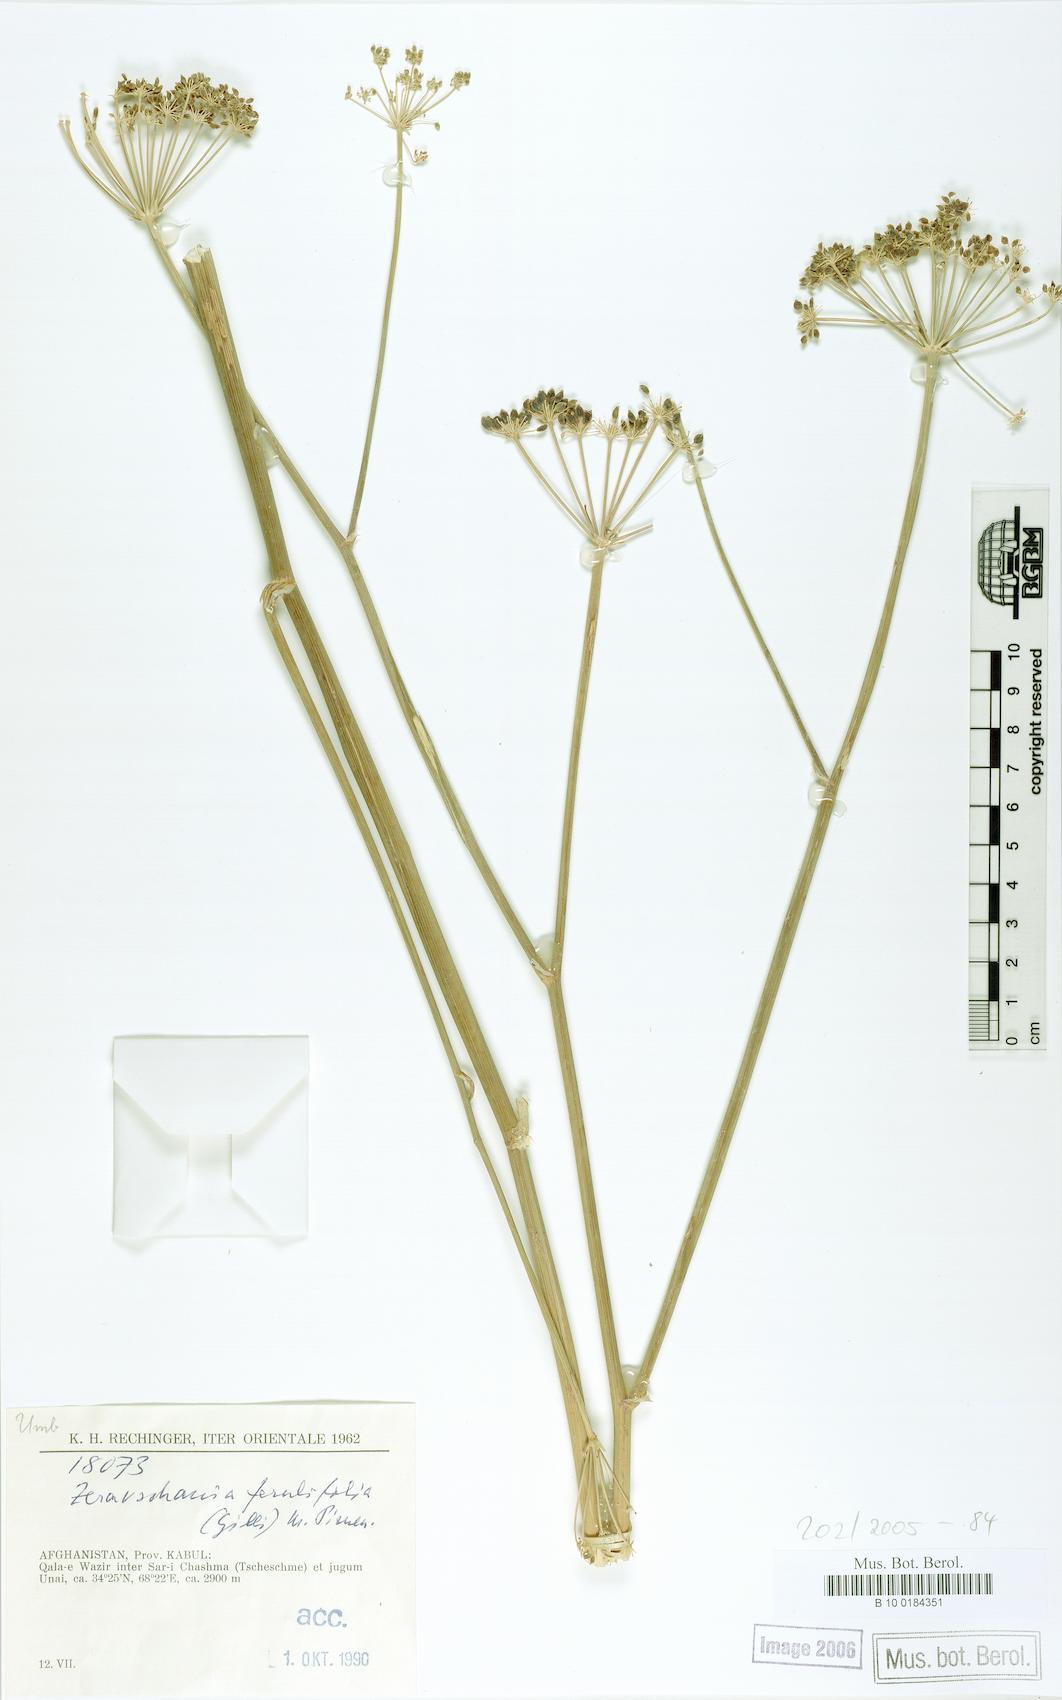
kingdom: Plantae
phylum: Tracheophyta
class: Magnoliopsida
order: Apiales
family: Apiaceae
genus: Zeravschania
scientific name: Zeravschania ferulifolia
